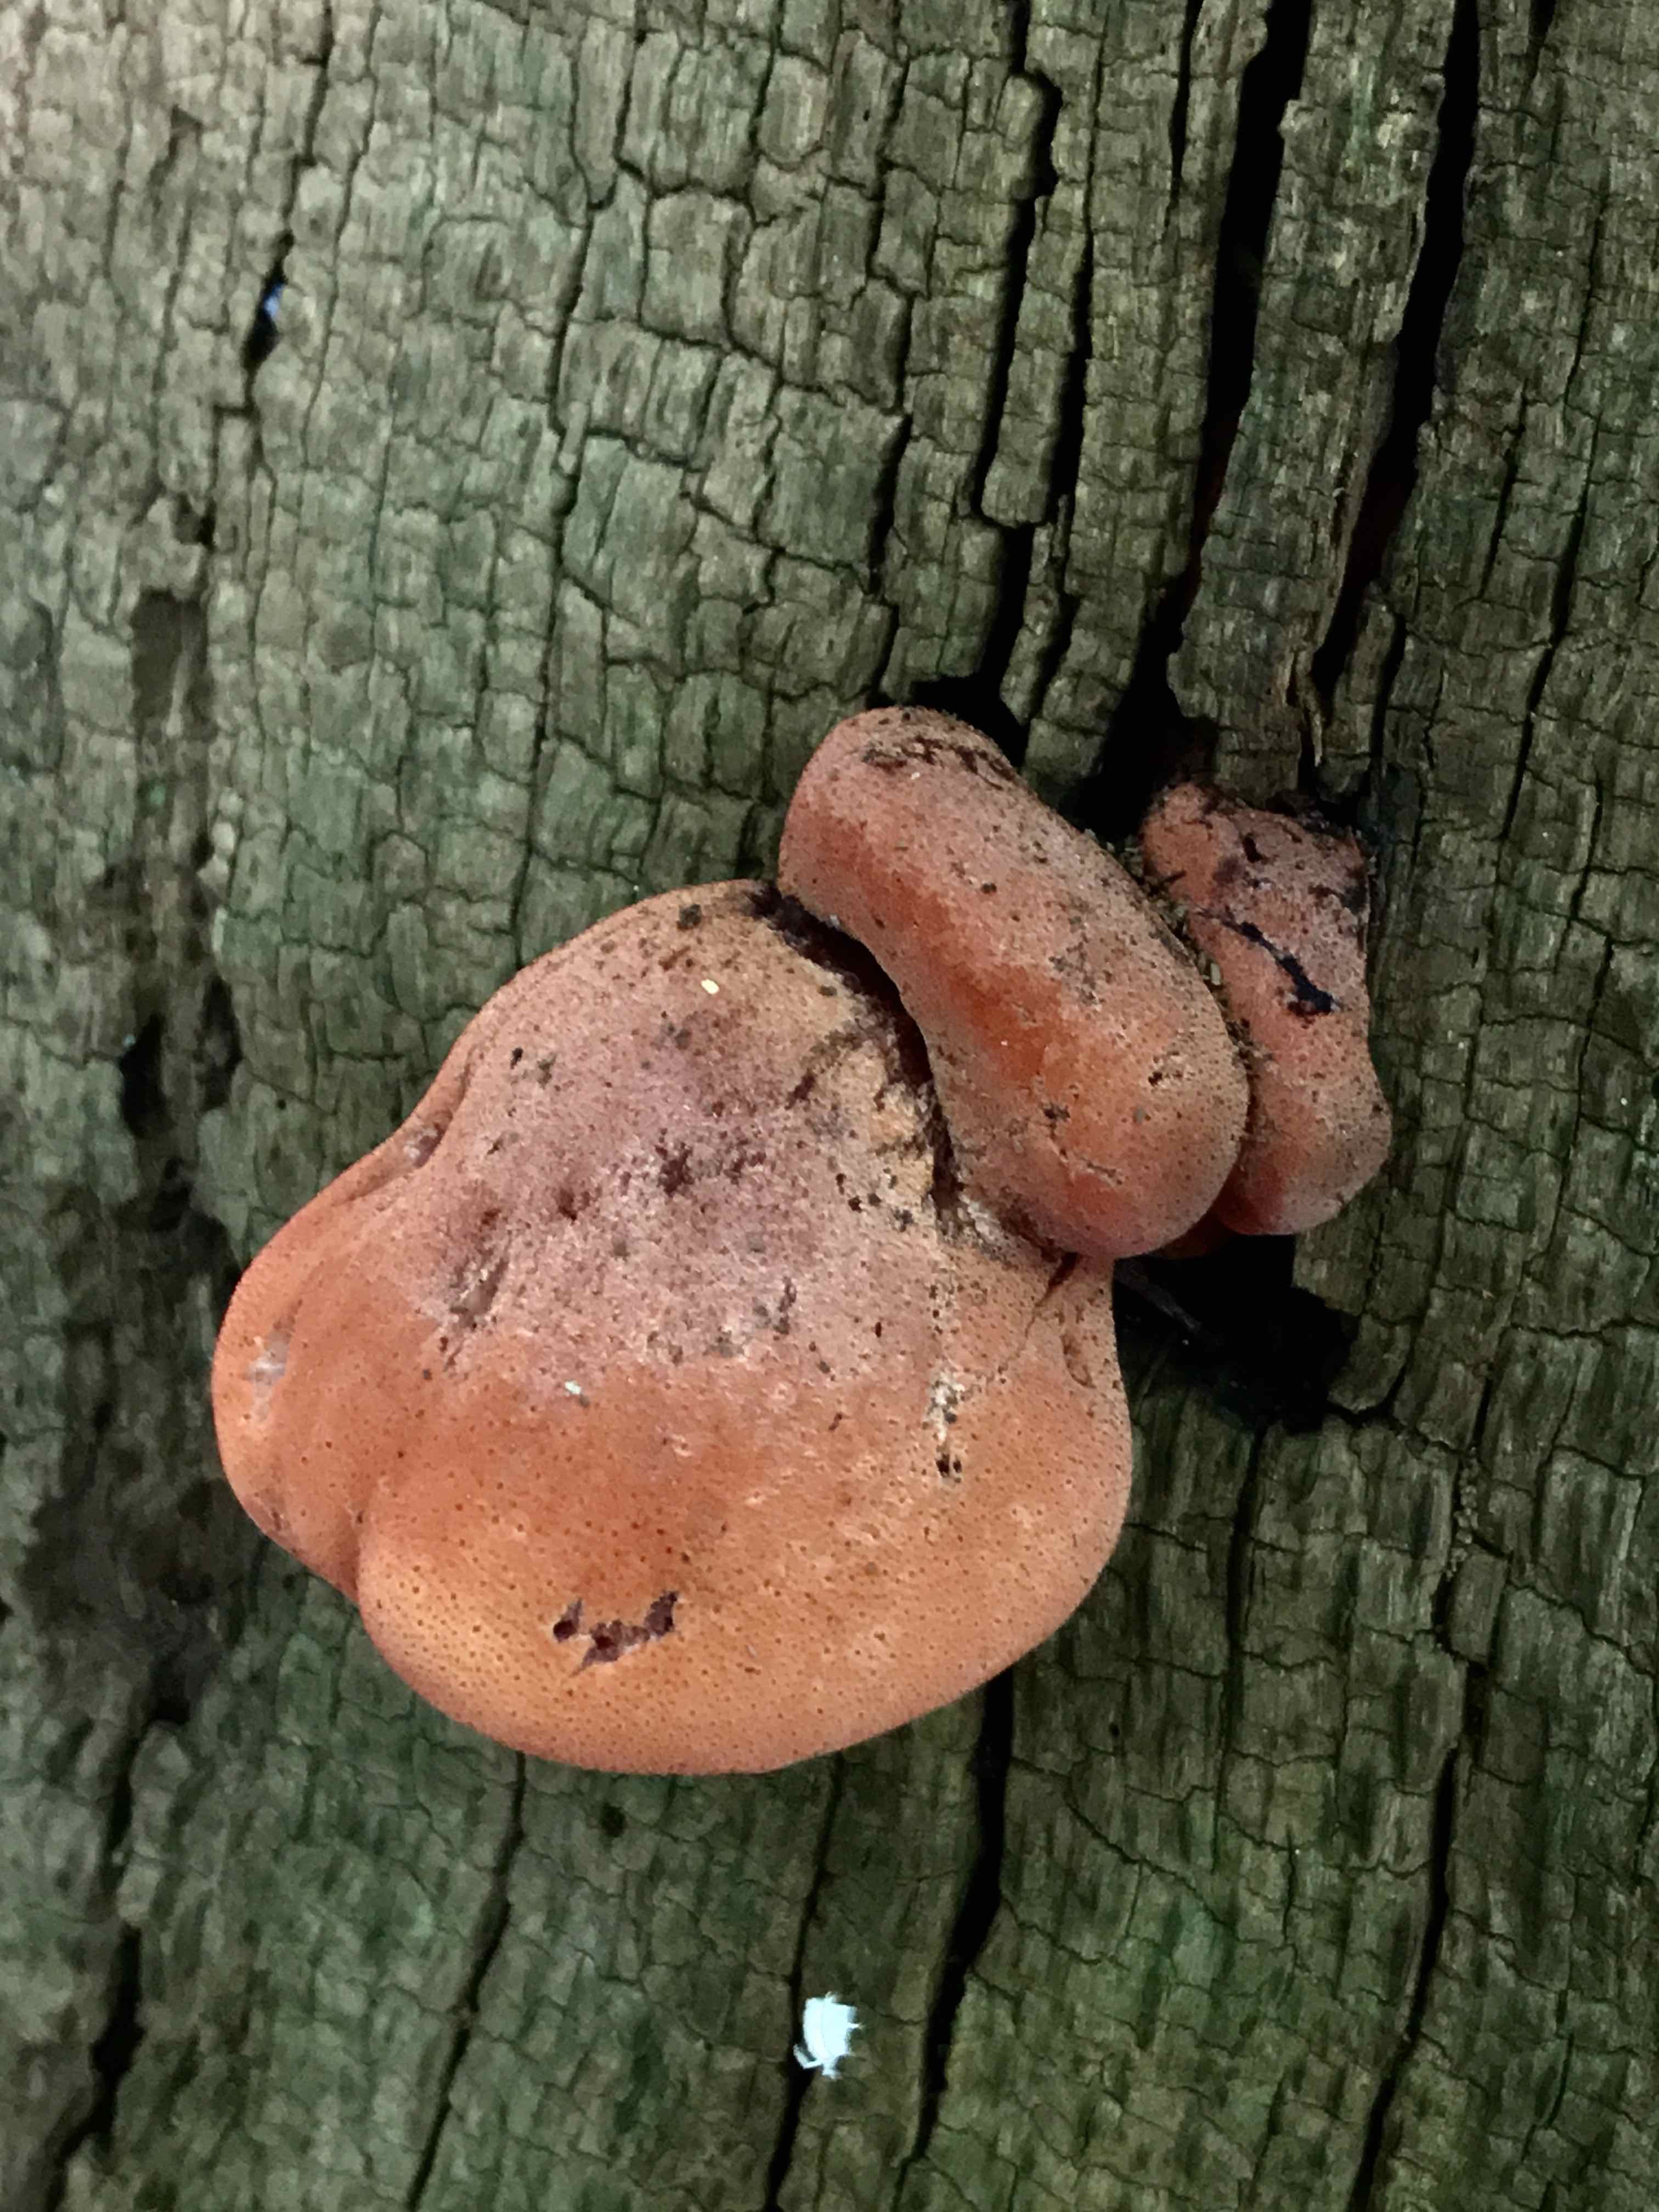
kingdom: Fungi
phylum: Basidiomycota
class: Agaricomycetes
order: Agaricales
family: Fistulinaceae
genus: Fistulina
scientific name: Fistulina hepatica
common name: oksetunge
